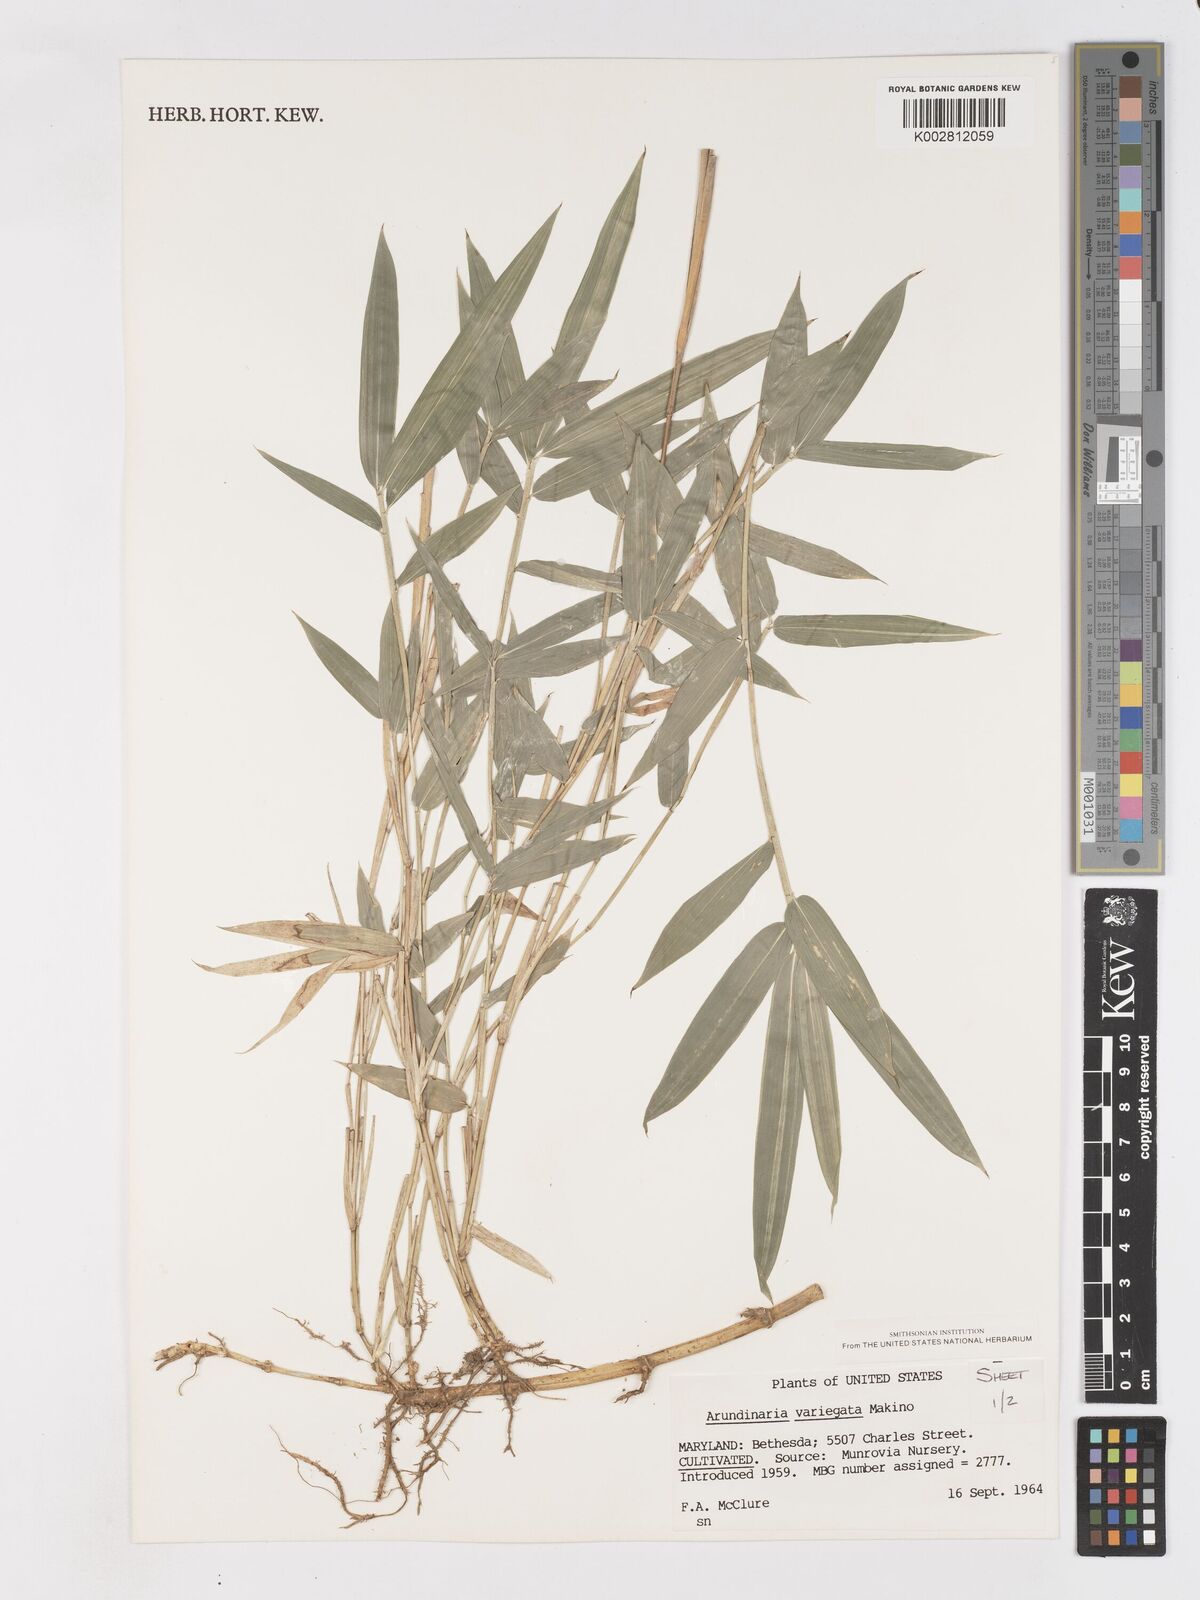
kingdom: Plantae
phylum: Tracheophyta
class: Liliopsida
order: Poales
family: Poaceae
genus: Pleioblastus
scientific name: Pleioblastus argenteostriatus
